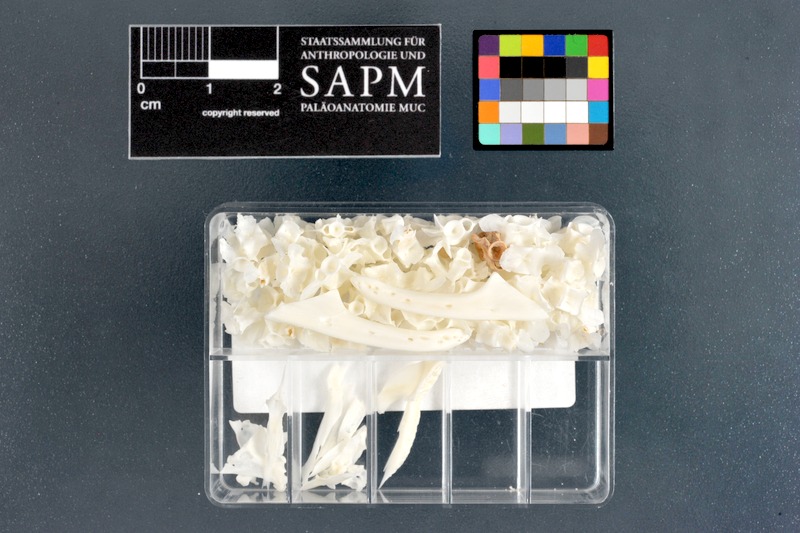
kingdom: Animalia
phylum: Chordata
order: Anguilliformes
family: Muraenidae
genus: Echidna
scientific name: Echidna polyzona
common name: Barred moray
